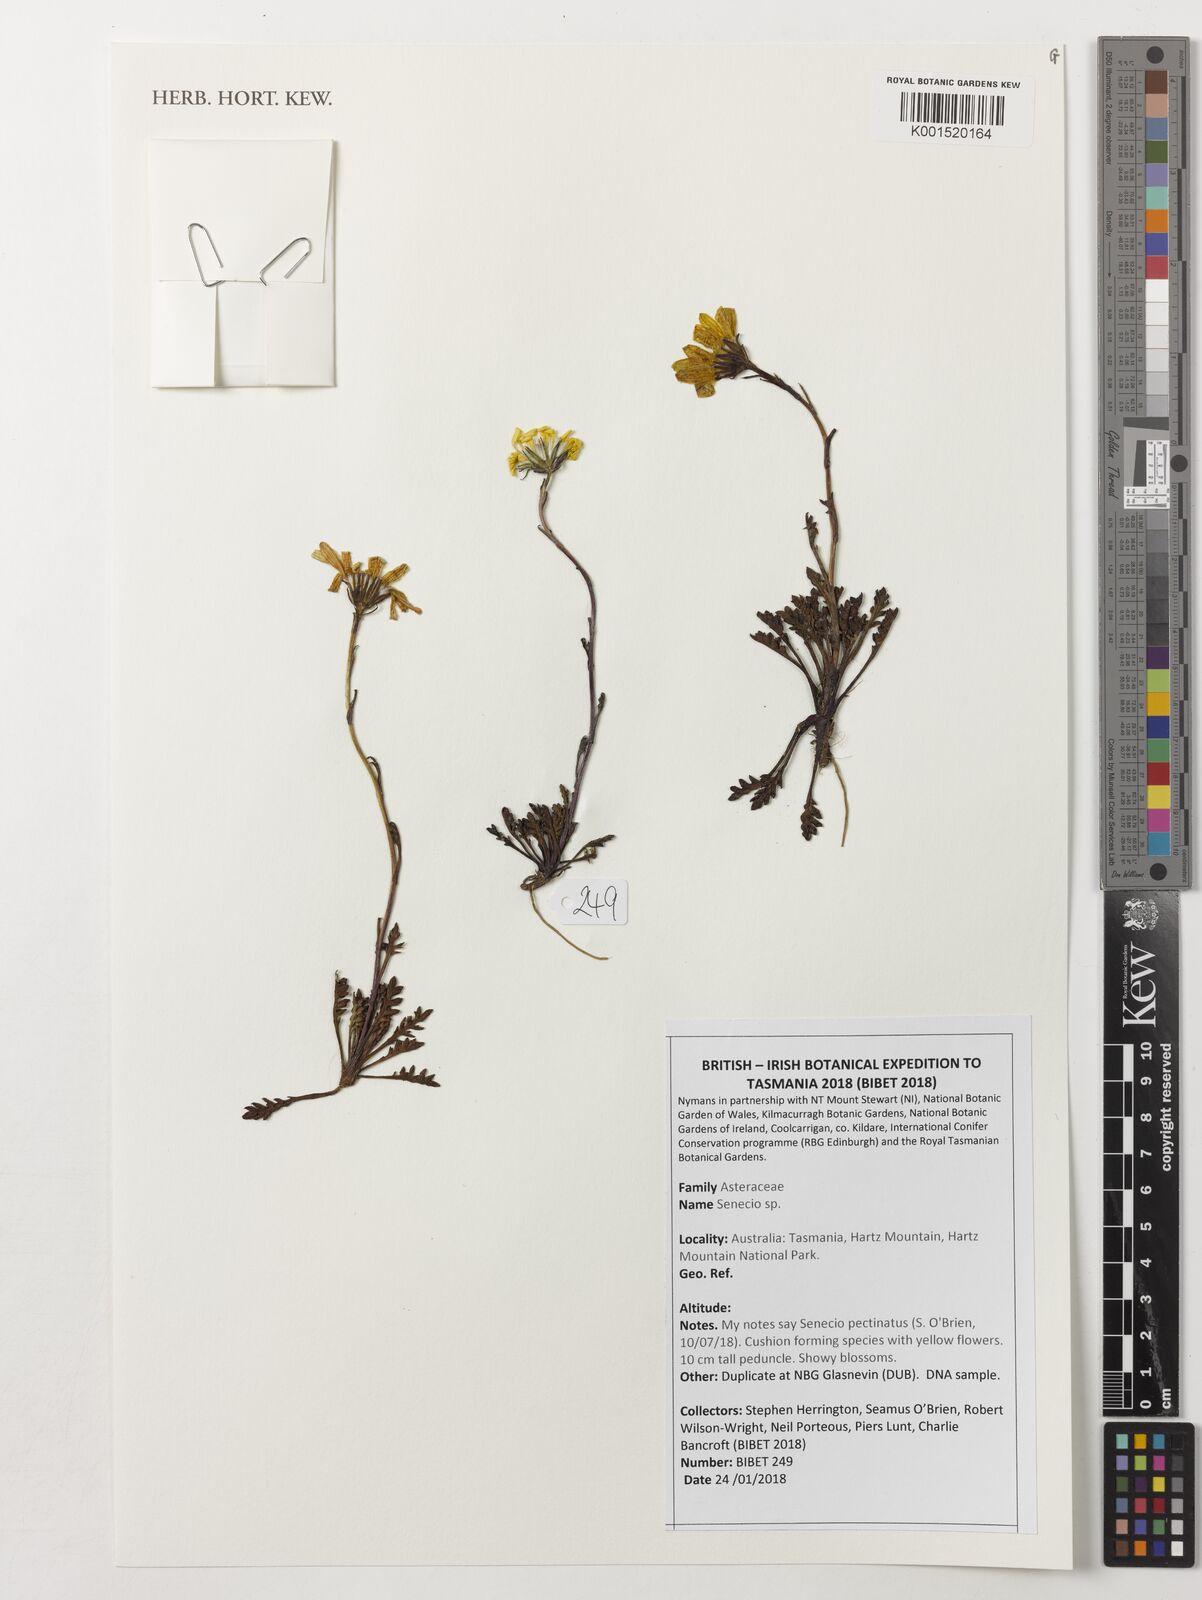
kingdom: Plantae
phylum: Tracheophyta
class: Magnoliopsida
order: Asterales
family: Asteraceae
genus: Senecio
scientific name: Senecio
